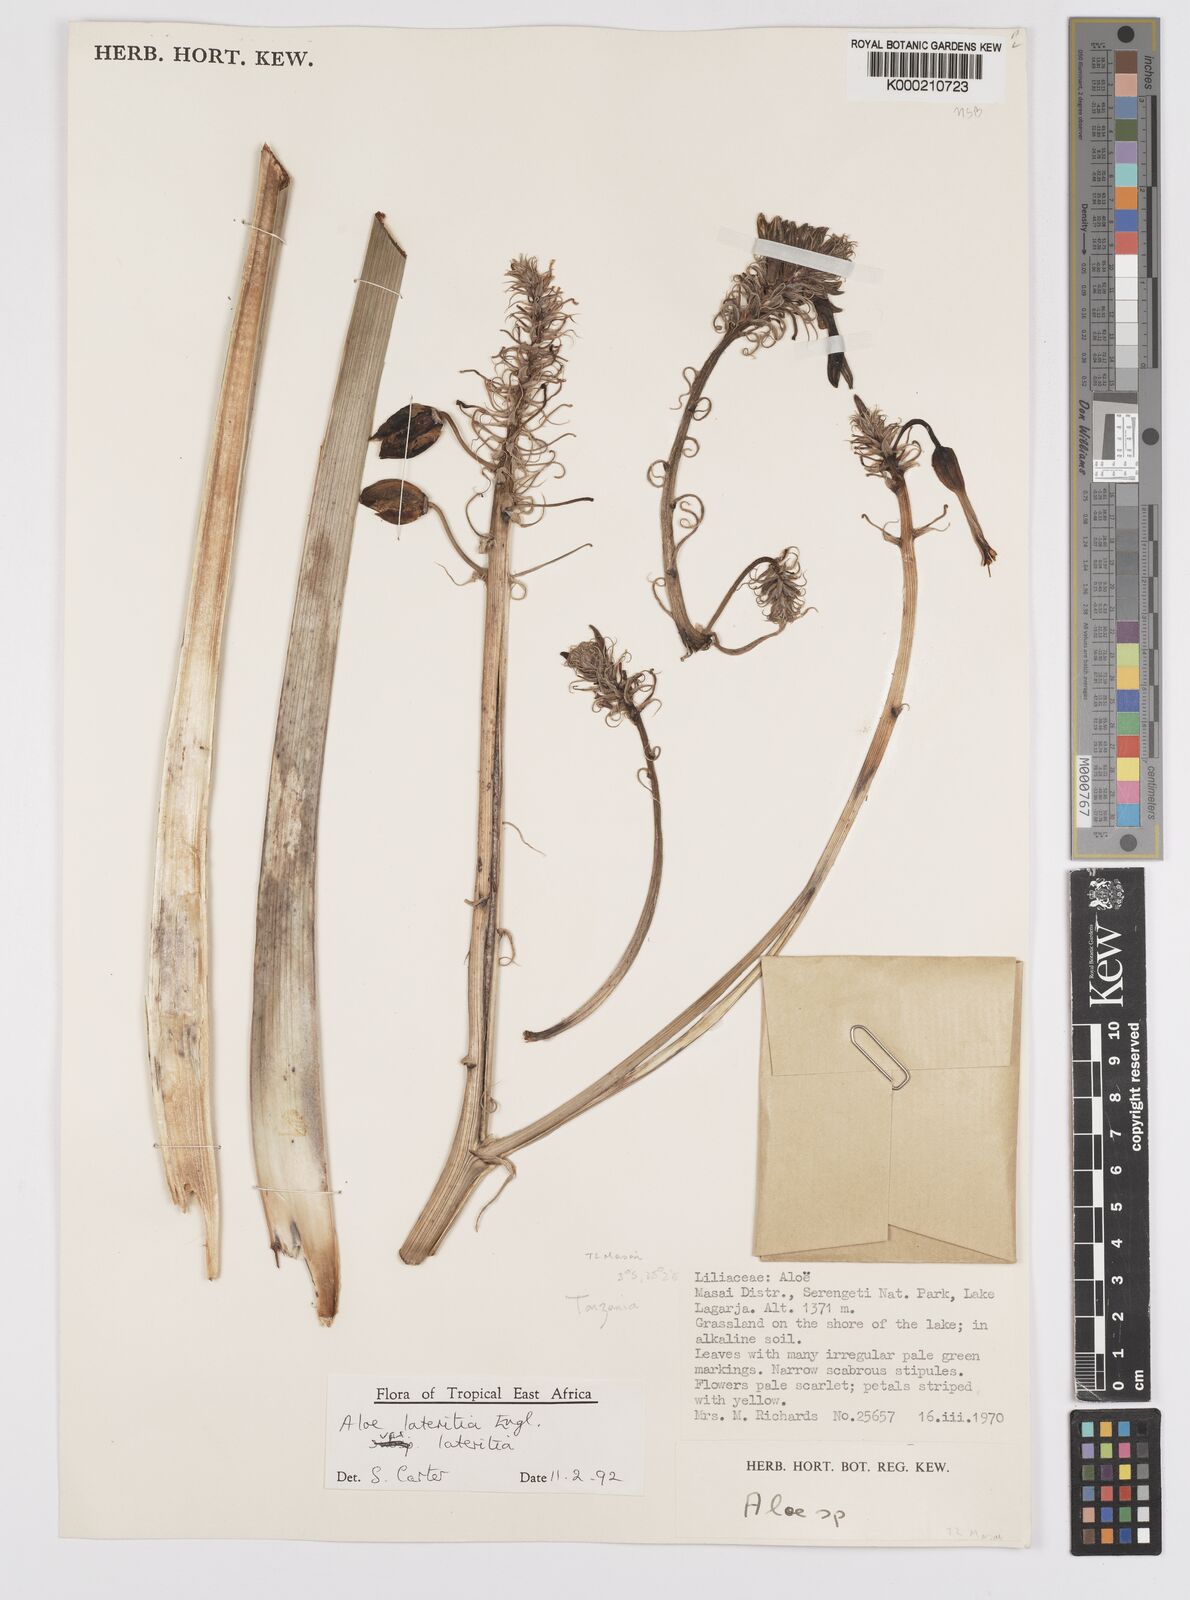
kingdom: Plantae
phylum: Tracheophyta
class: Liliopsida
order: Asparagales
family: Asphodelaceae
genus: Aloe
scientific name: Aloe lateritia
